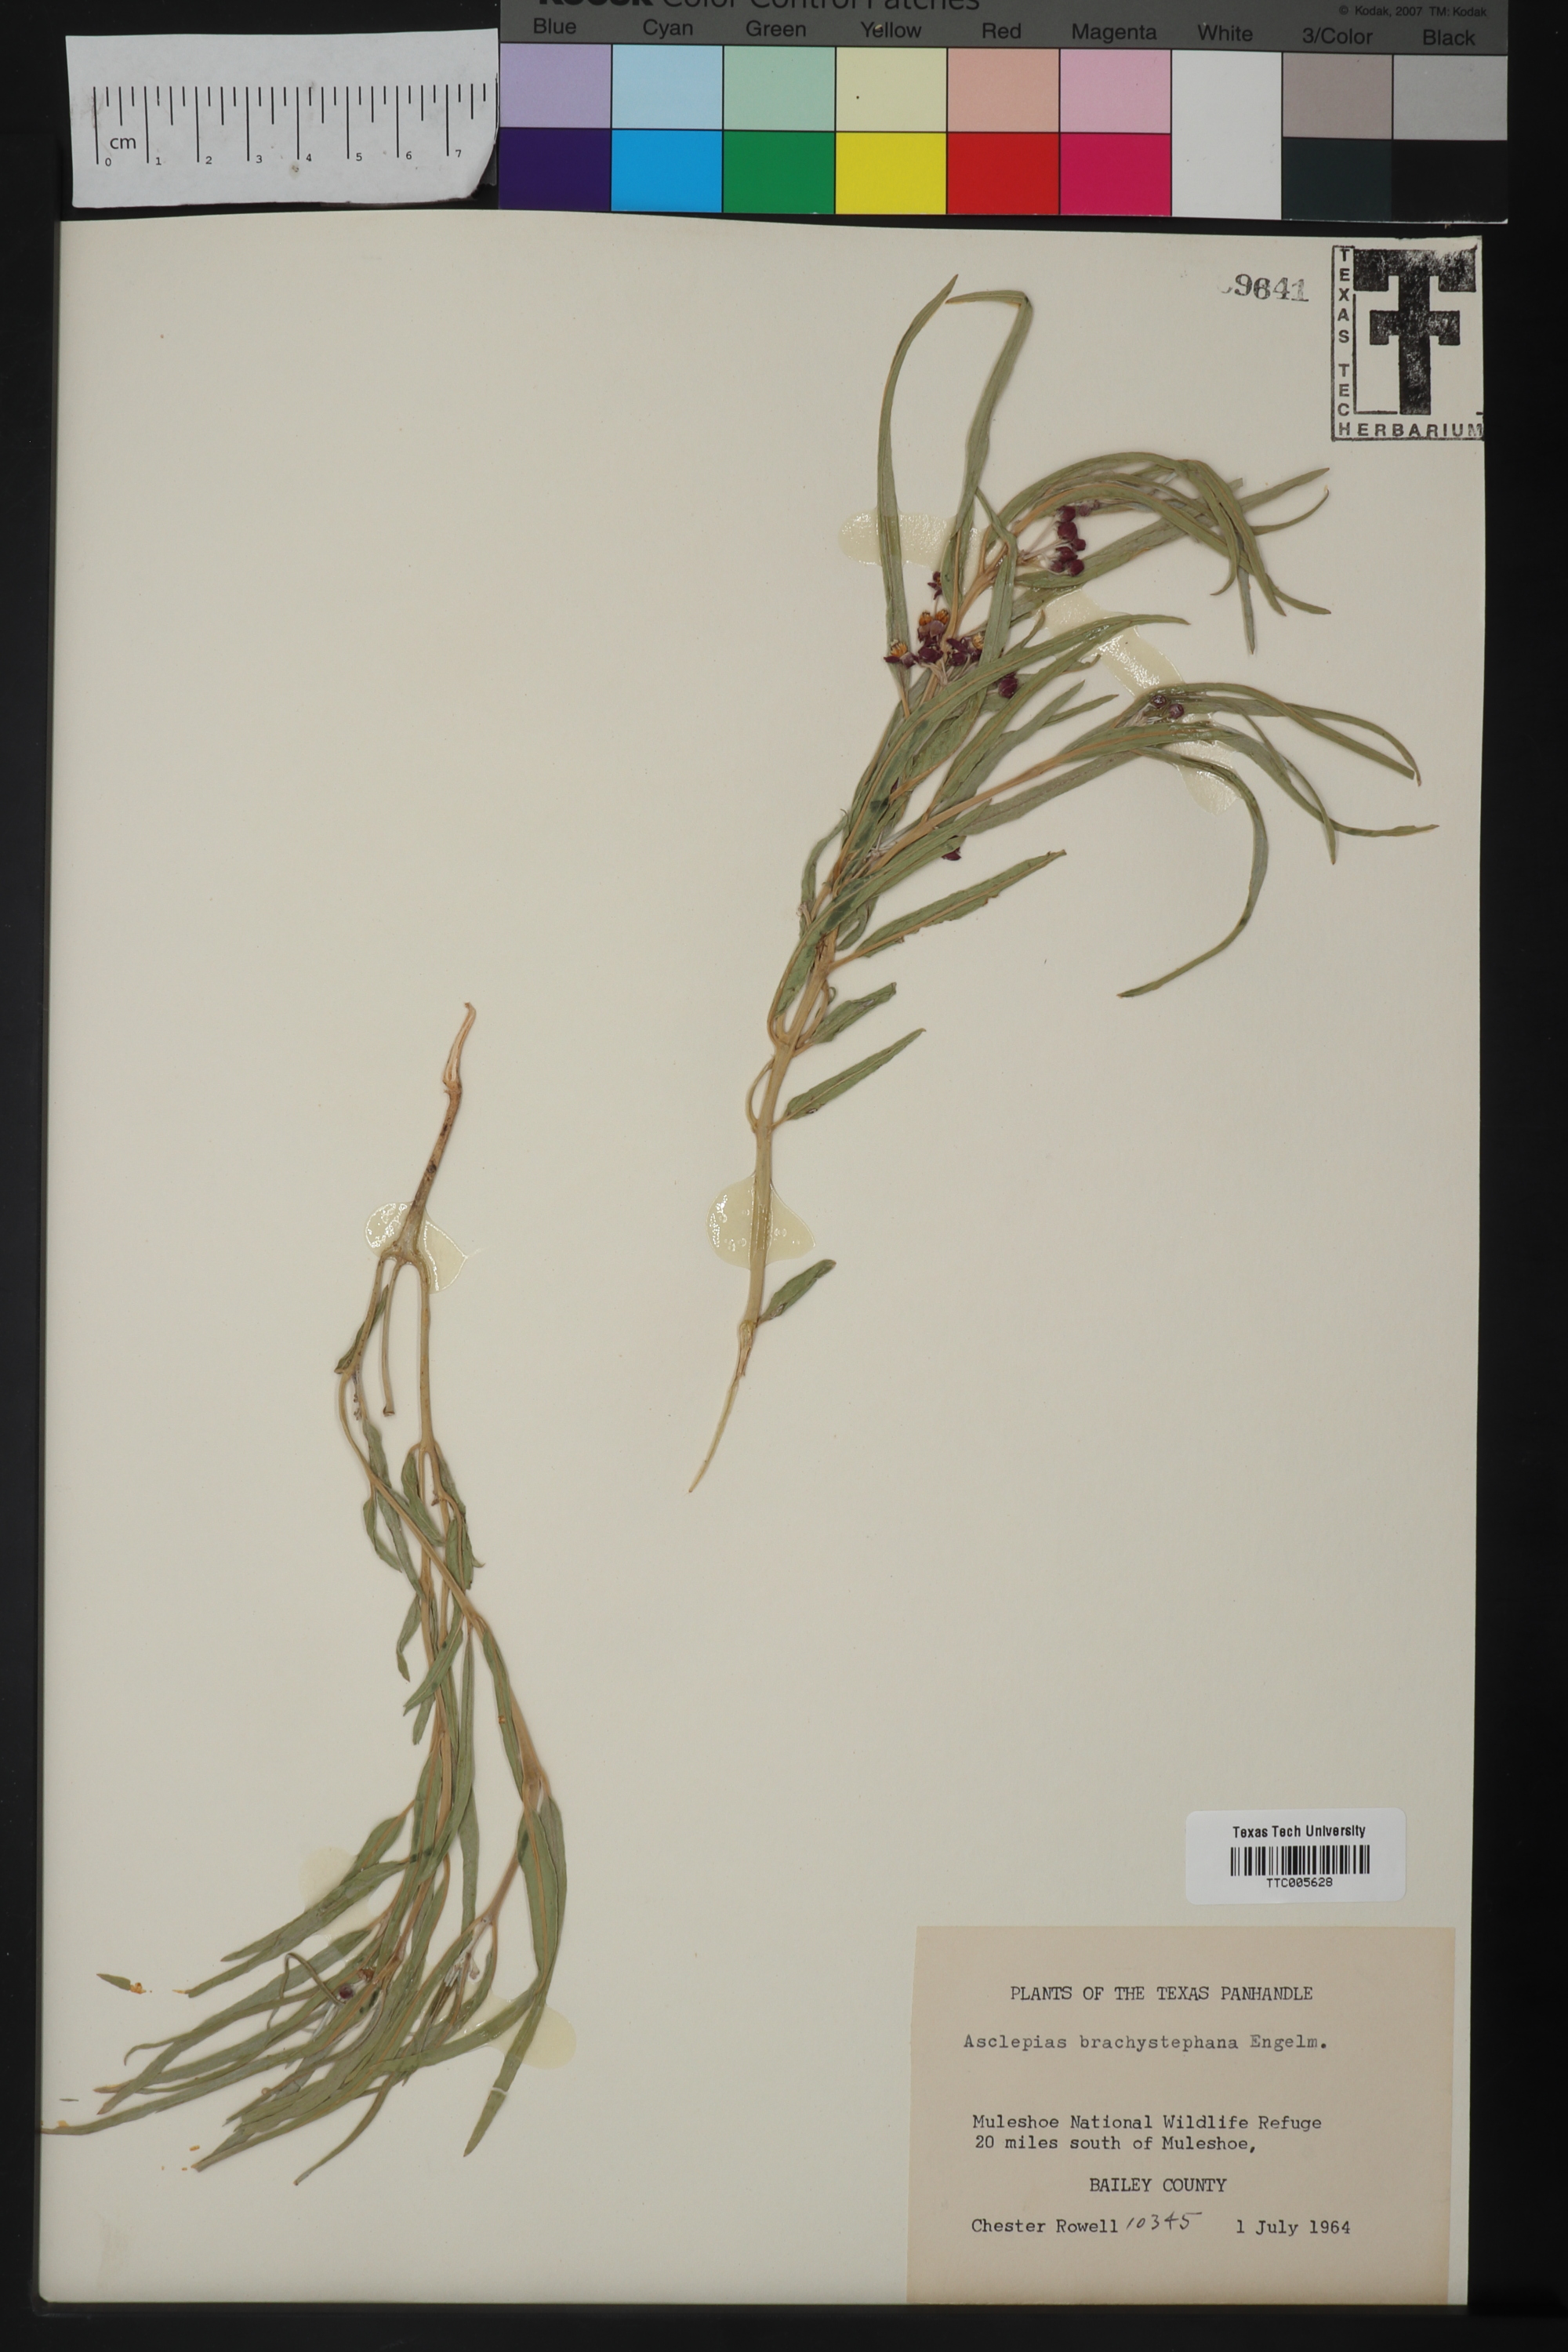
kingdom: Plantae
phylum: Tracheophyta
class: Magnoliopsida
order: Gentianales
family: Apocynaceae
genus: Asclepias
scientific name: Asclepias brachystephana
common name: Shortcrown milkweed
